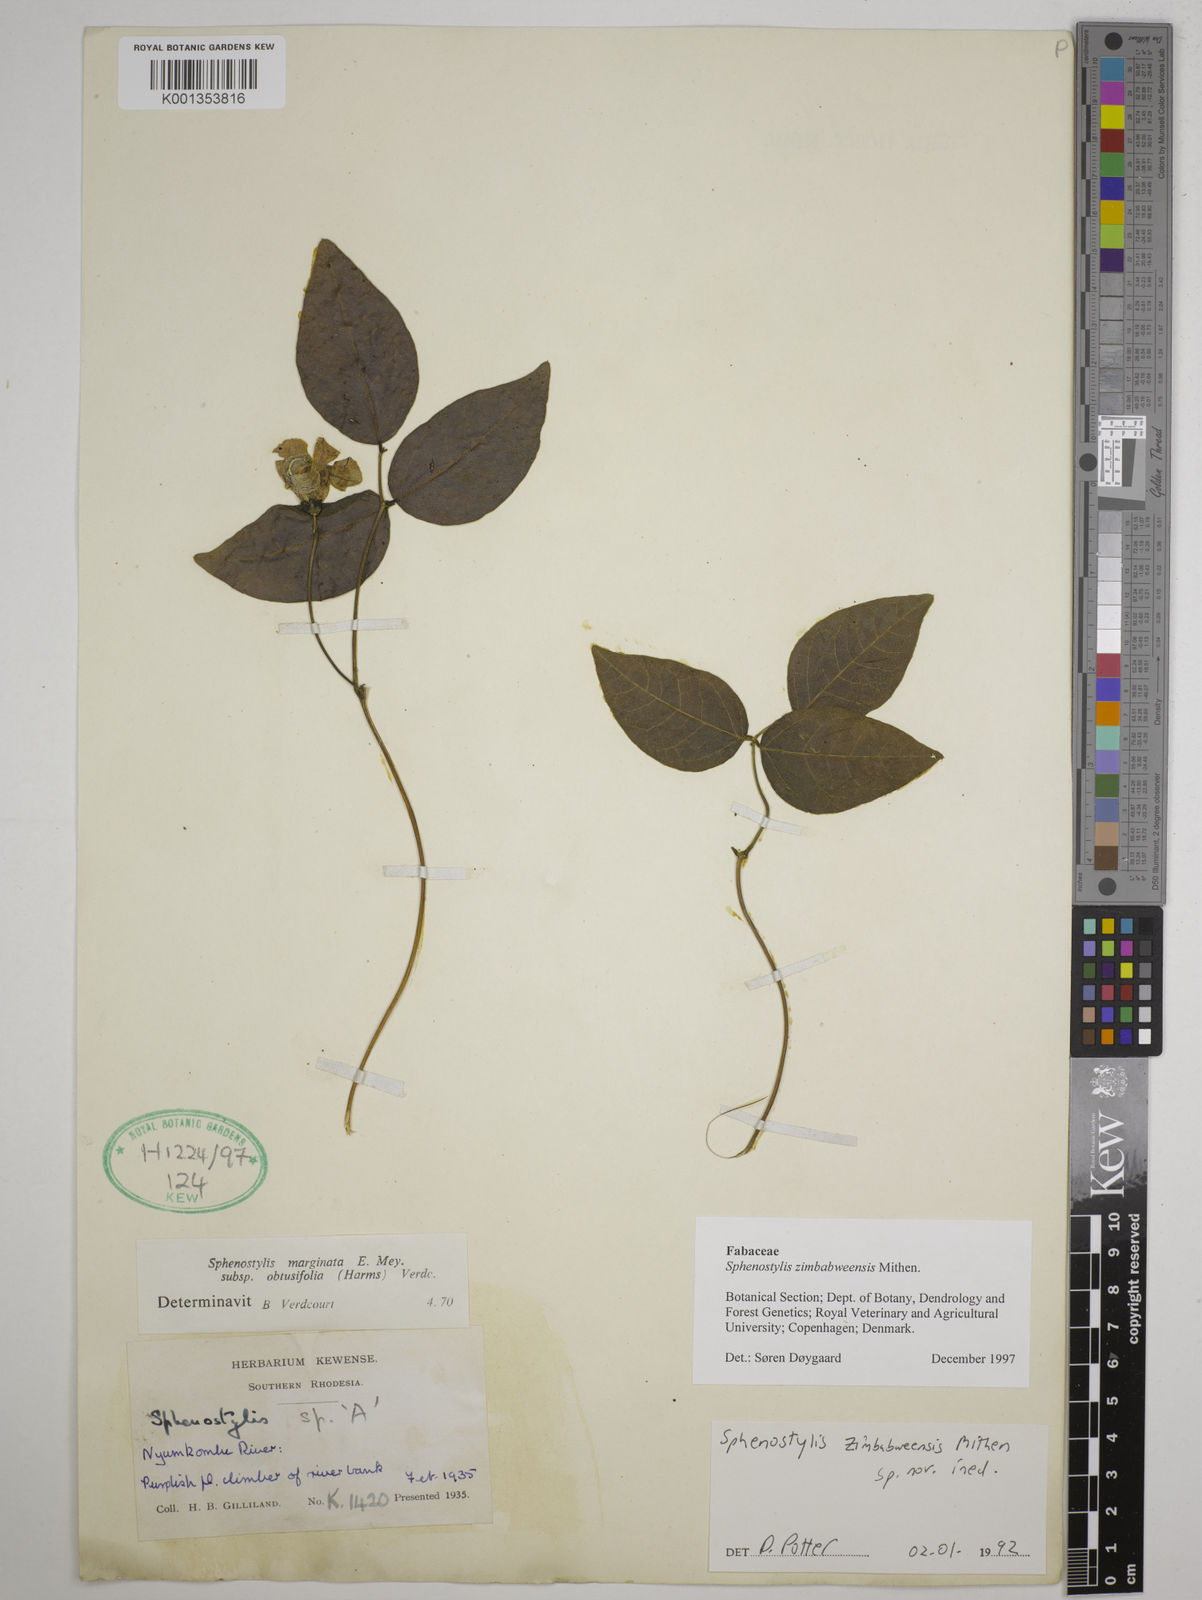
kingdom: Plantae
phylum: Tracheophyta
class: Magnoliopsida
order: Fabales
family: Fabaceae
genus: Sphenostylis
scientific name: Sphenostylis zimbabweensis
